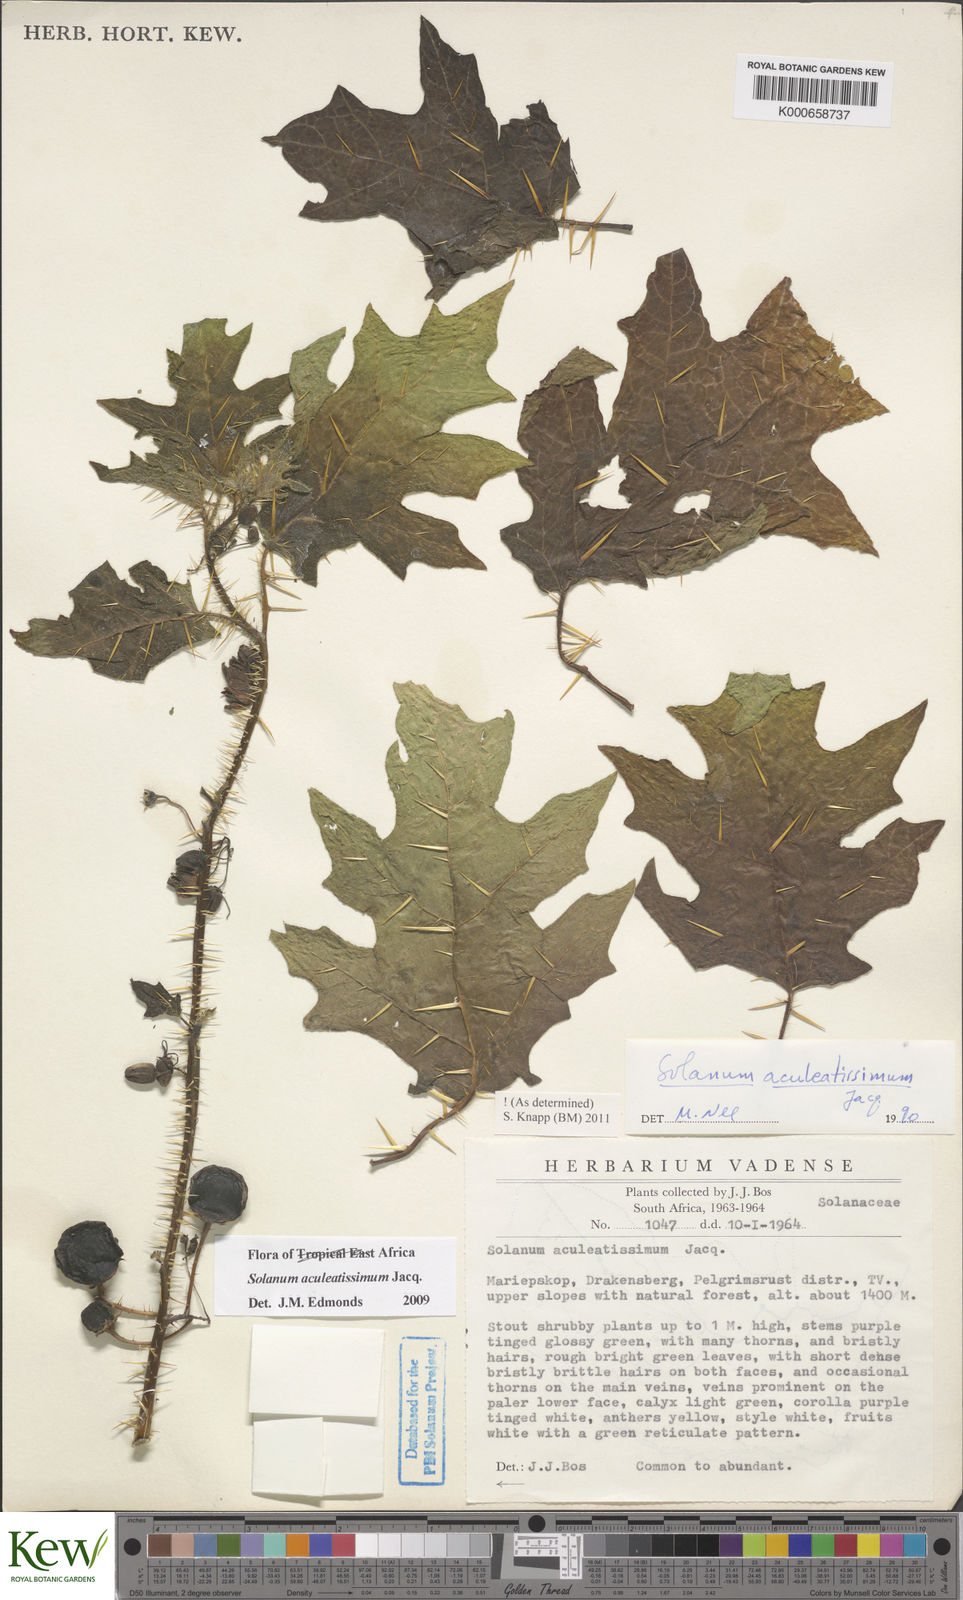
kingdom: Plantae
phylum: Tracheophyta
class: Magnoliopsida
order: Solanales
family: Solanaceae
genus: Solanum
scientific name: Solanum aculeatissimum
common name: Dutch eggplant
